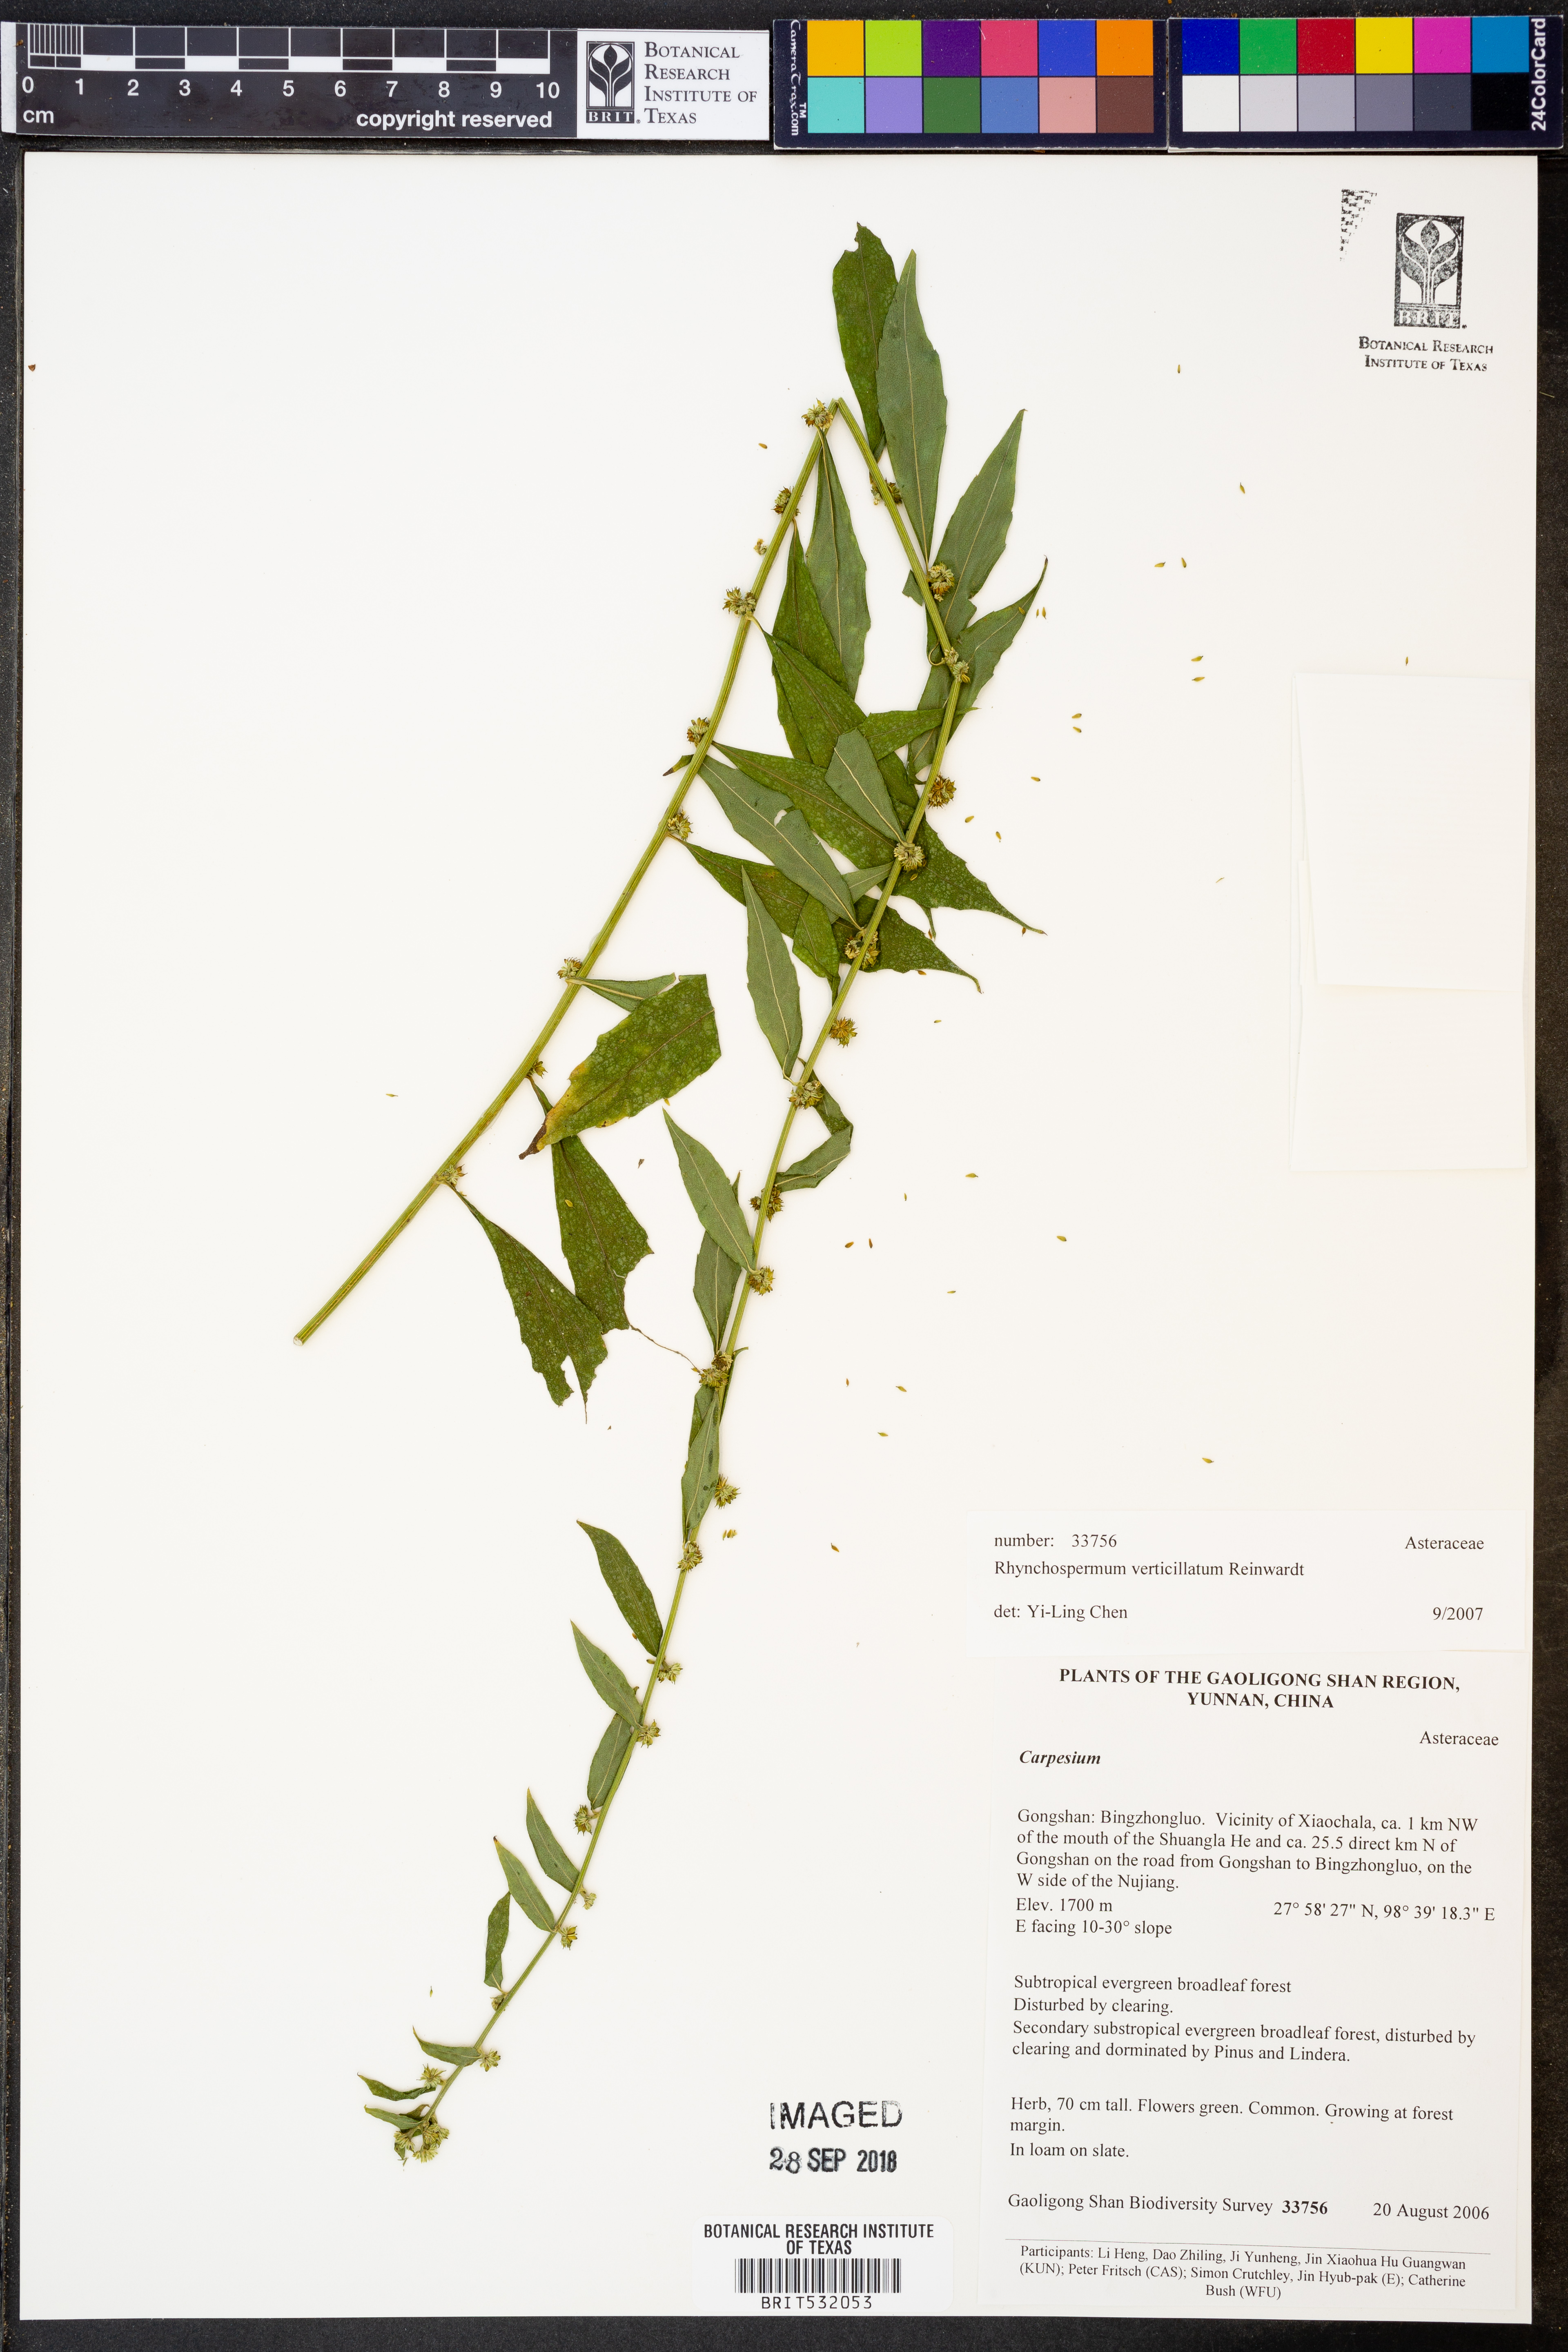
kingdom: Plantae
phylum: Tracheophyta
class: Magnoliopsida
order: Asterales
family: Asteraceae
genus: Rhynchospermum
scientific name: Rhynchospermum verticillatum
